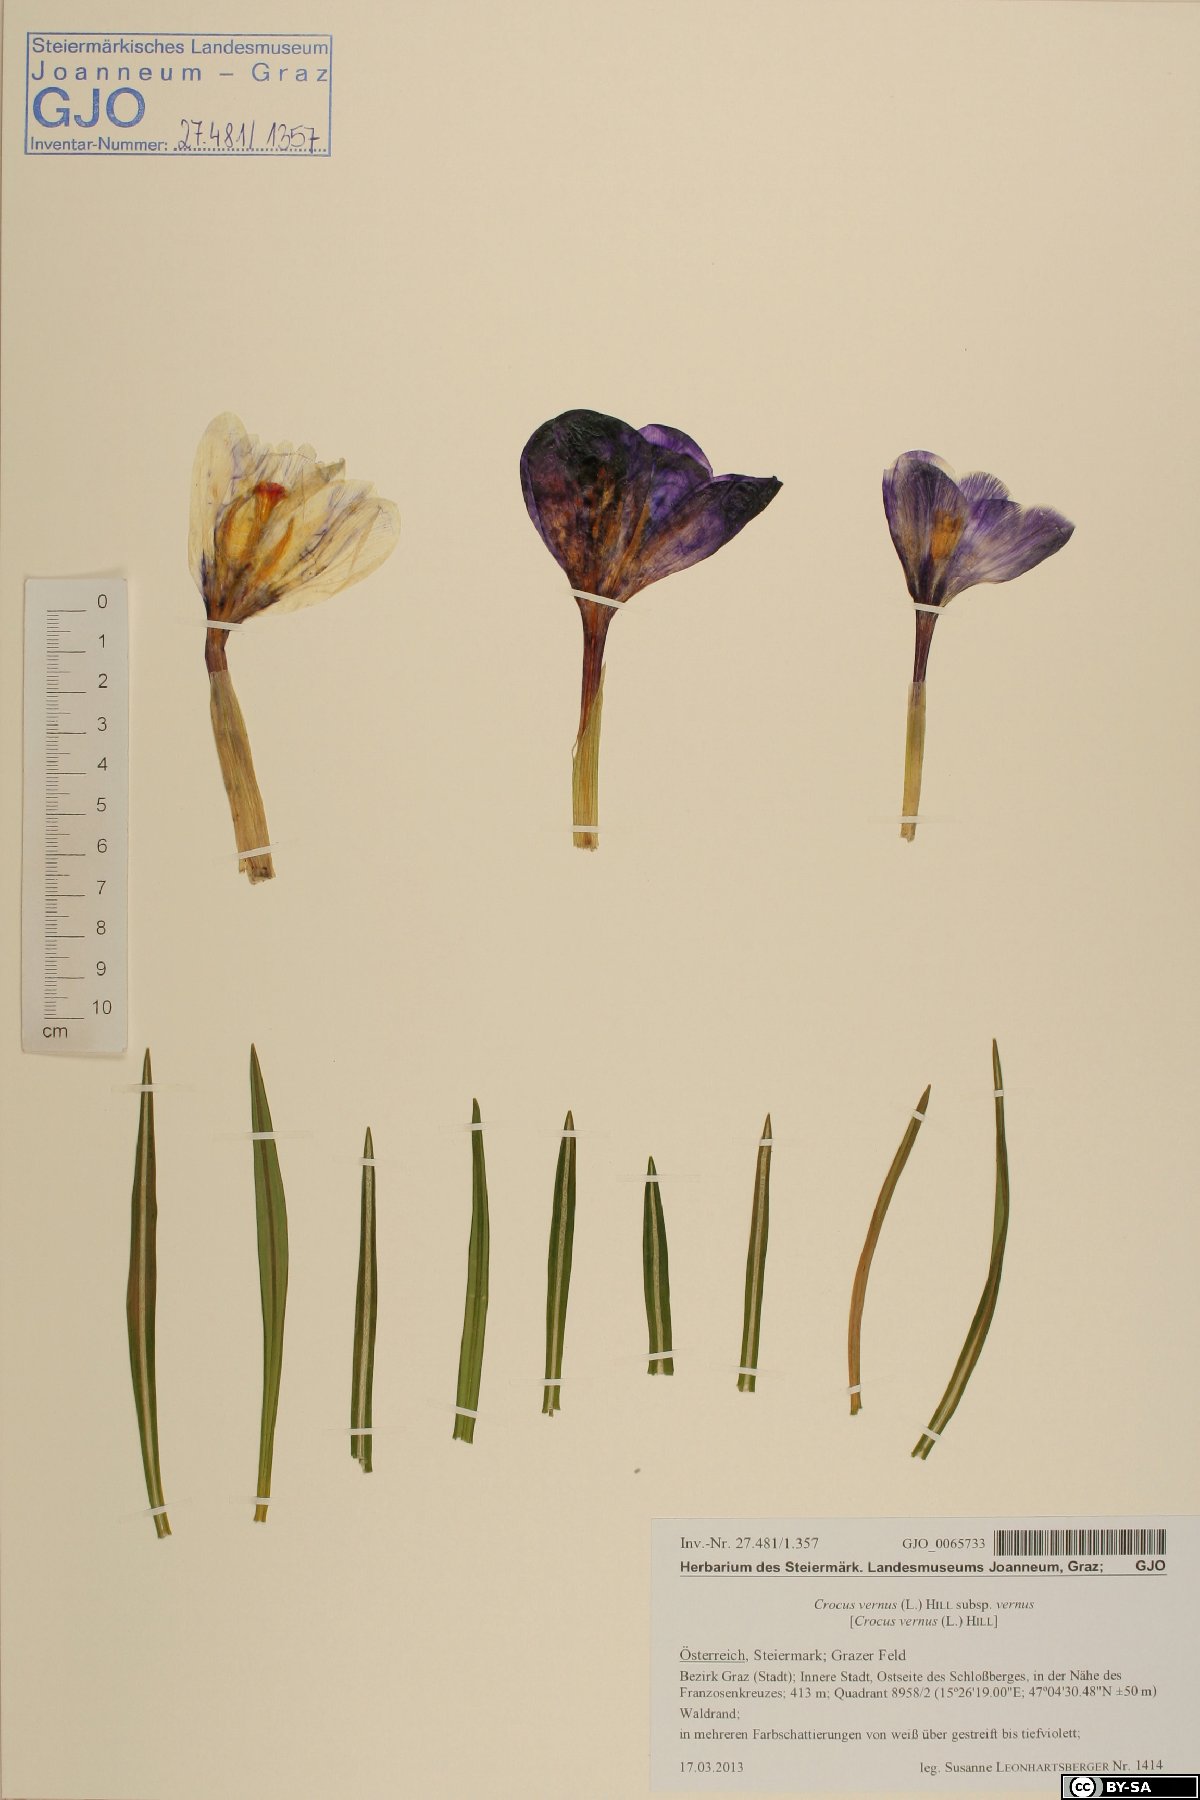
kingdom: Plantae
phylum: Tracheophyta
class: Liliopsida
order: Asparagales
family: Iridaceae
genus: Crocus
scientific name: Crocus vernus
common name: Spring crocus
